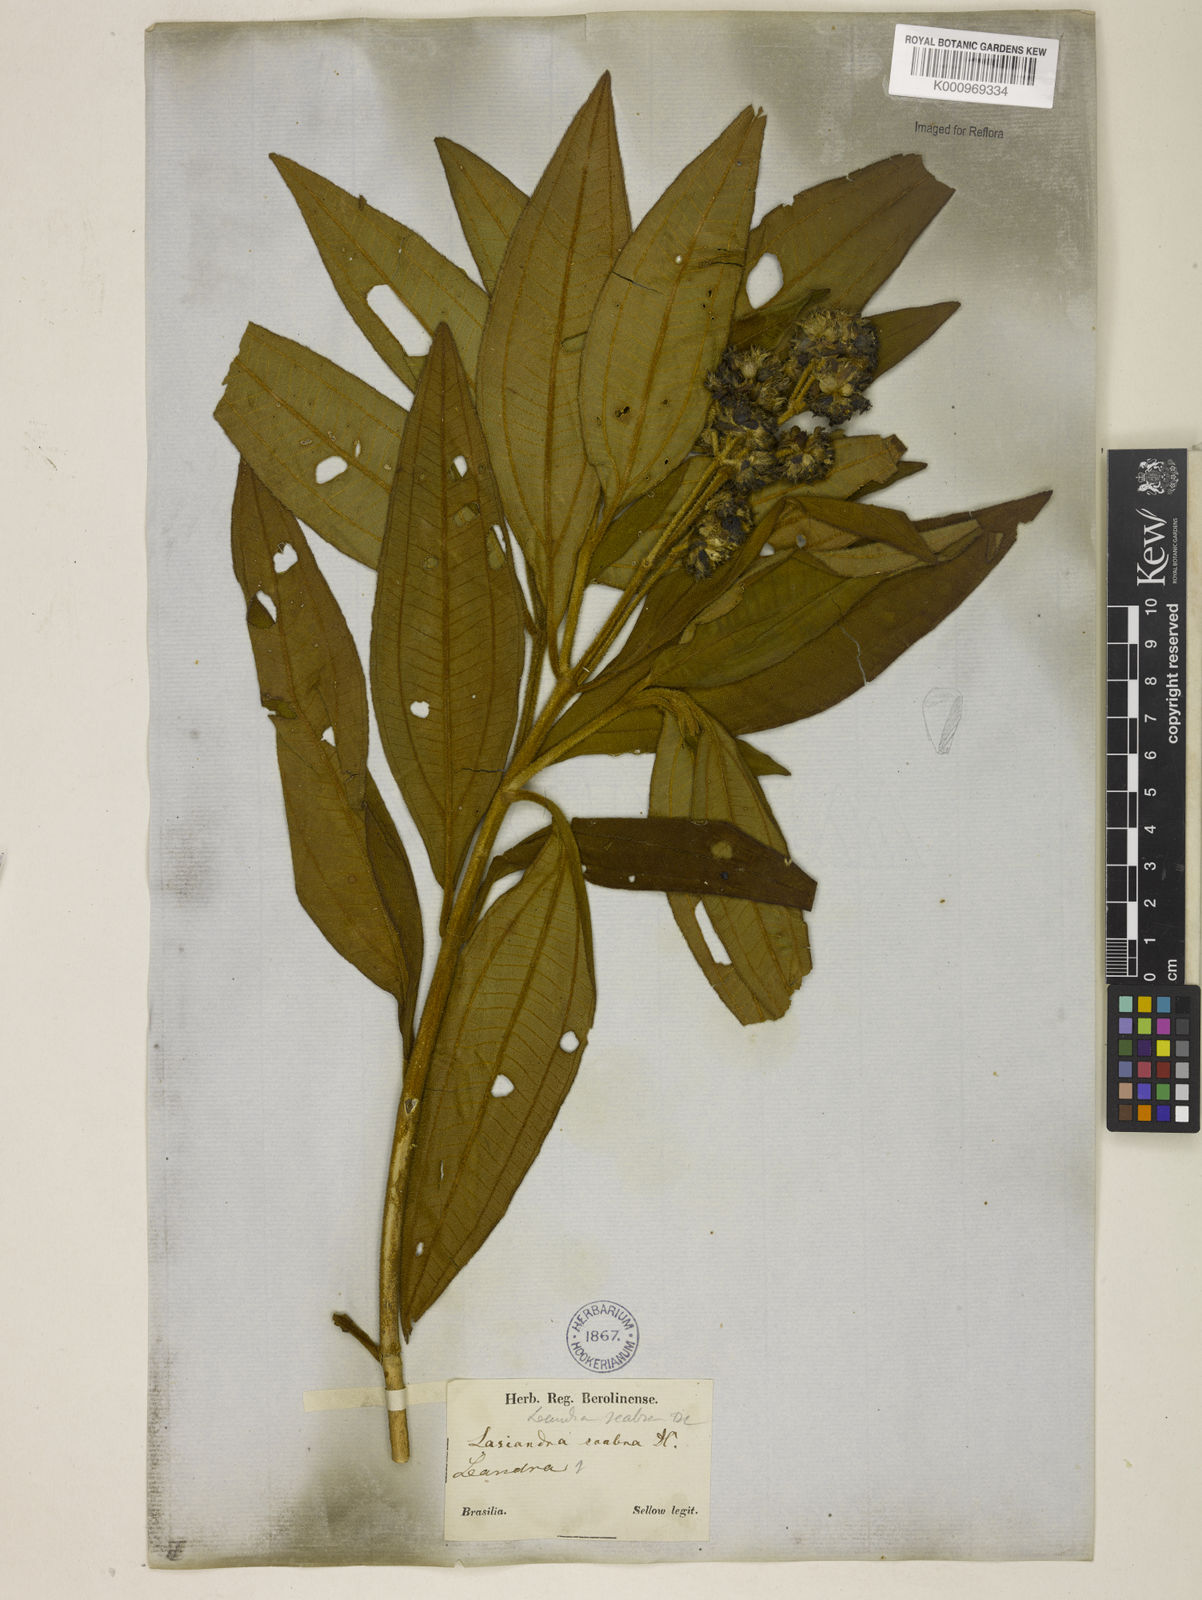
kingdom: Plantae
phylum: Tracheophyta
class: Magnoliopsida
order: Myrtales
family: Melastomataceae
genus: Miconia
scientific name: Miconia melastomoides
